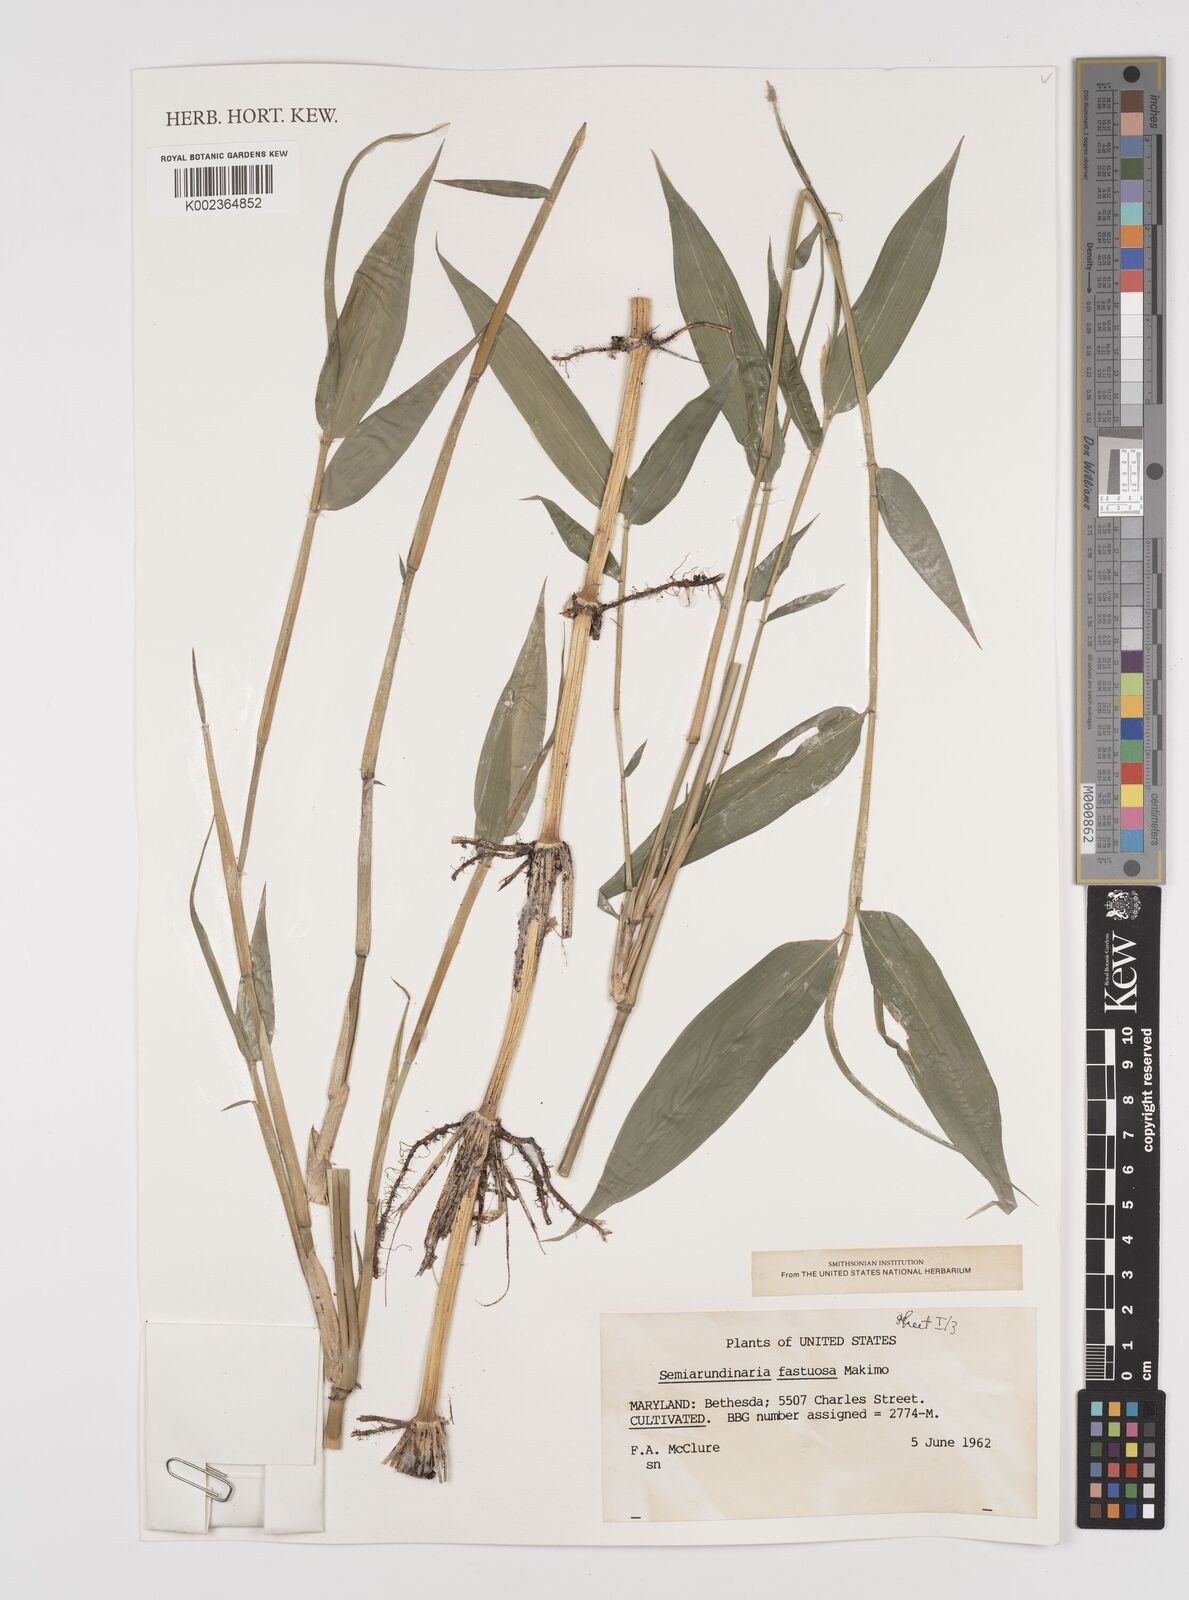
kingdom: Plantae
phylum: Tracheophyta
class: Liliopsida
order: Poales
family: Poaceae
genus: Semiarundinaria
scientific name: Semiarundinaria fastuosa
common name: Narihira bamboo
